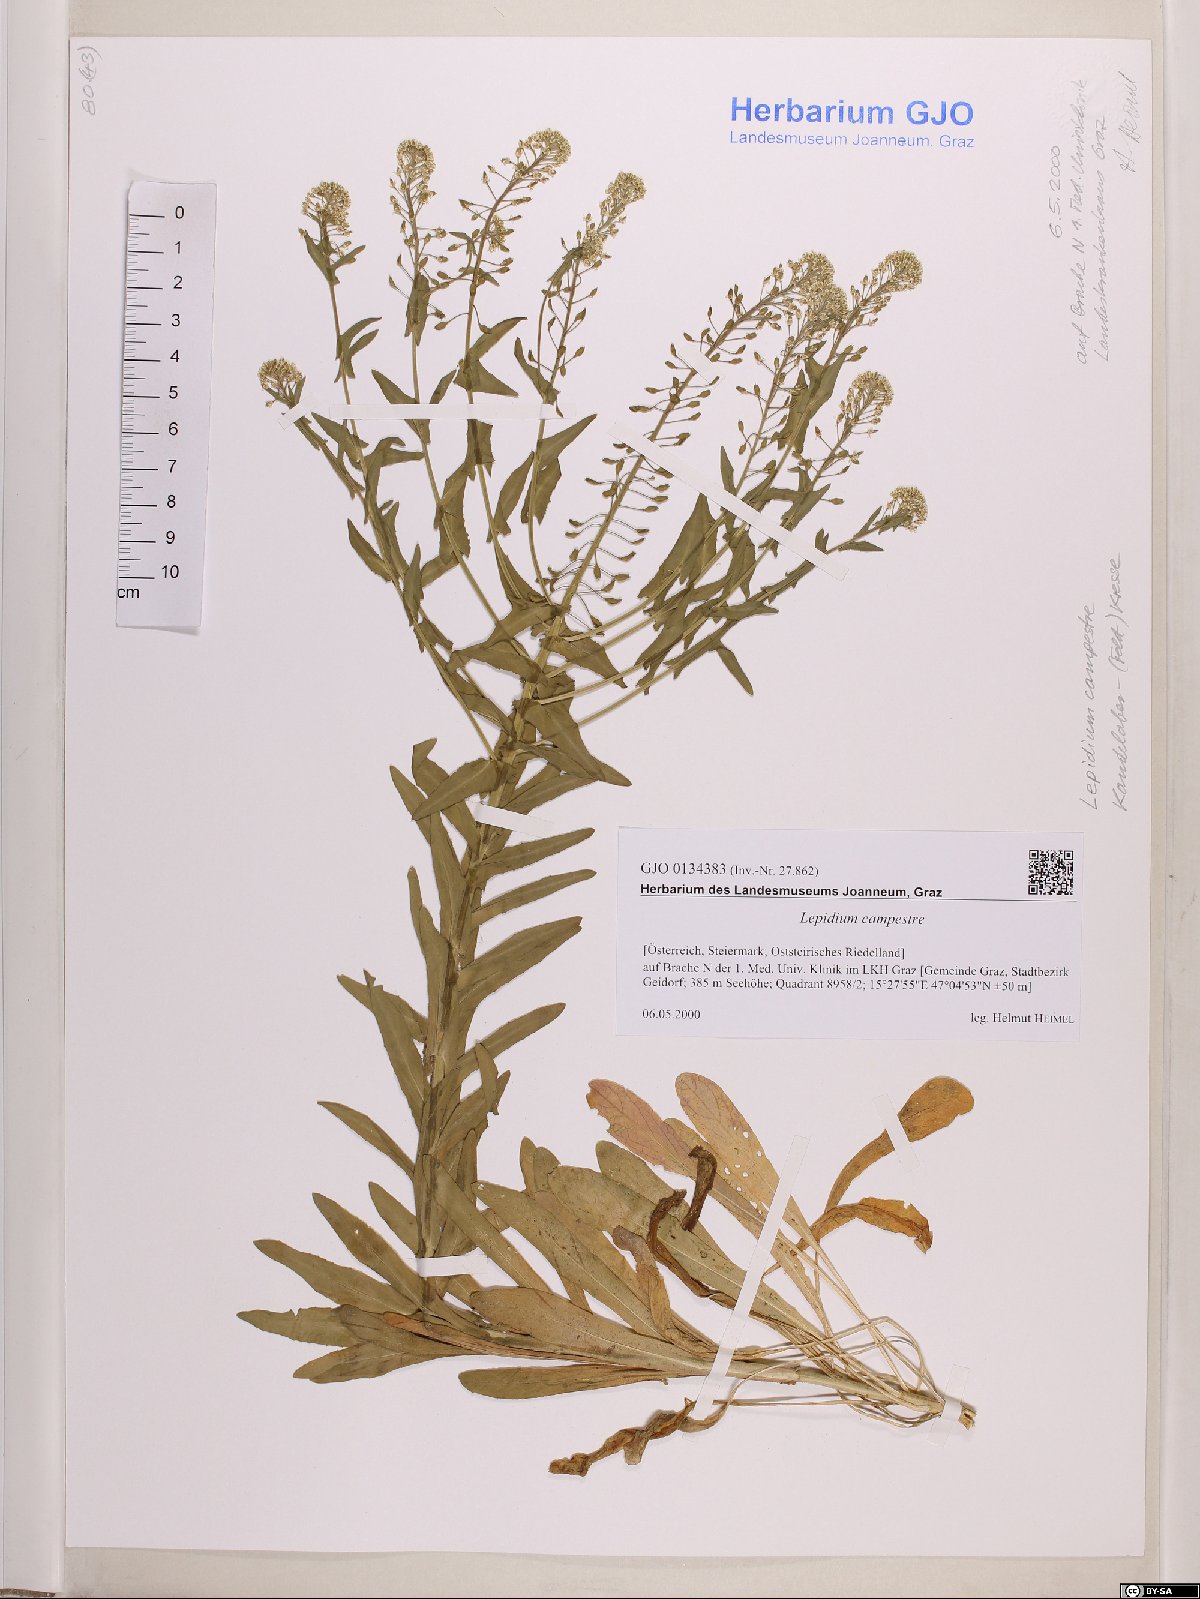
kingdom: Plantae
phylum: Tracheophyta
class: Magnoliopsida
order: Brassicales
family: Brassicaceae
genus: Lepidium
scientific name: Lepidium campestre
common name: Field pepperwort
